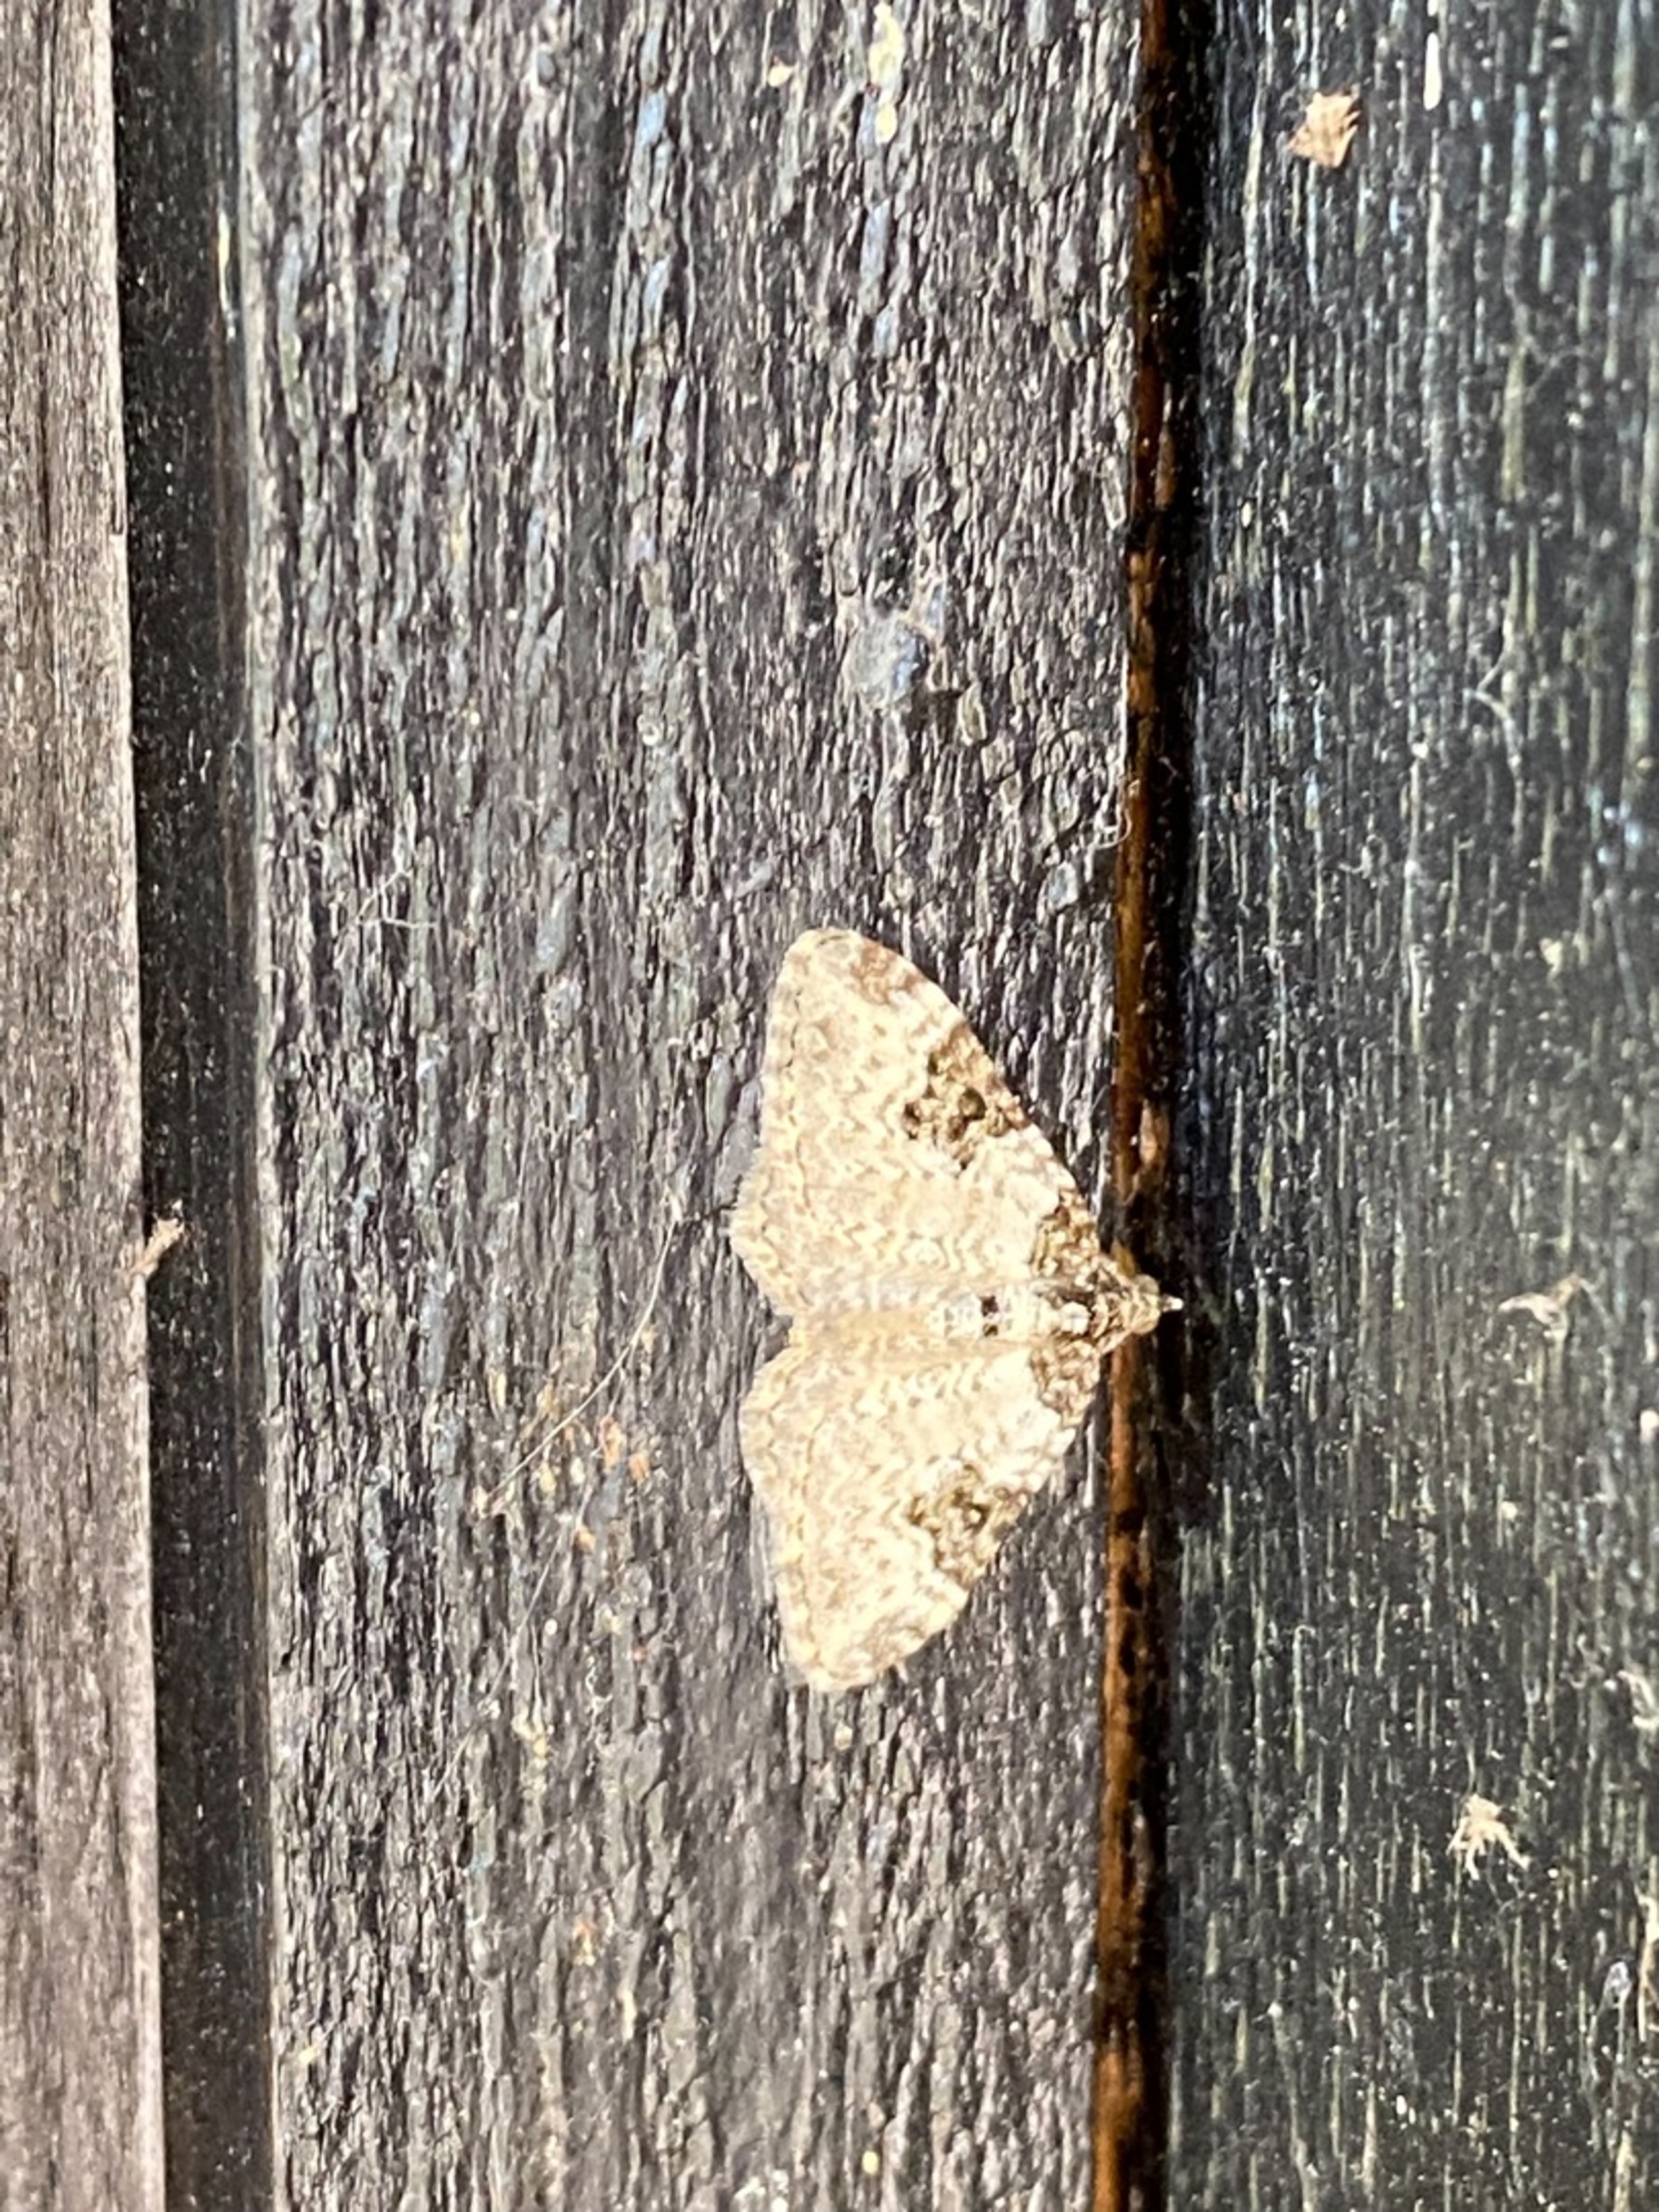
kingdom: Animalia
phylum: Arthropoda
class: Insecta
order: Lepidoptera
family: Geometridae
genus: Xanthorhoe
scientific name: Xanthorhoe fluctuata
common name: Sortbæltet bladmåler
